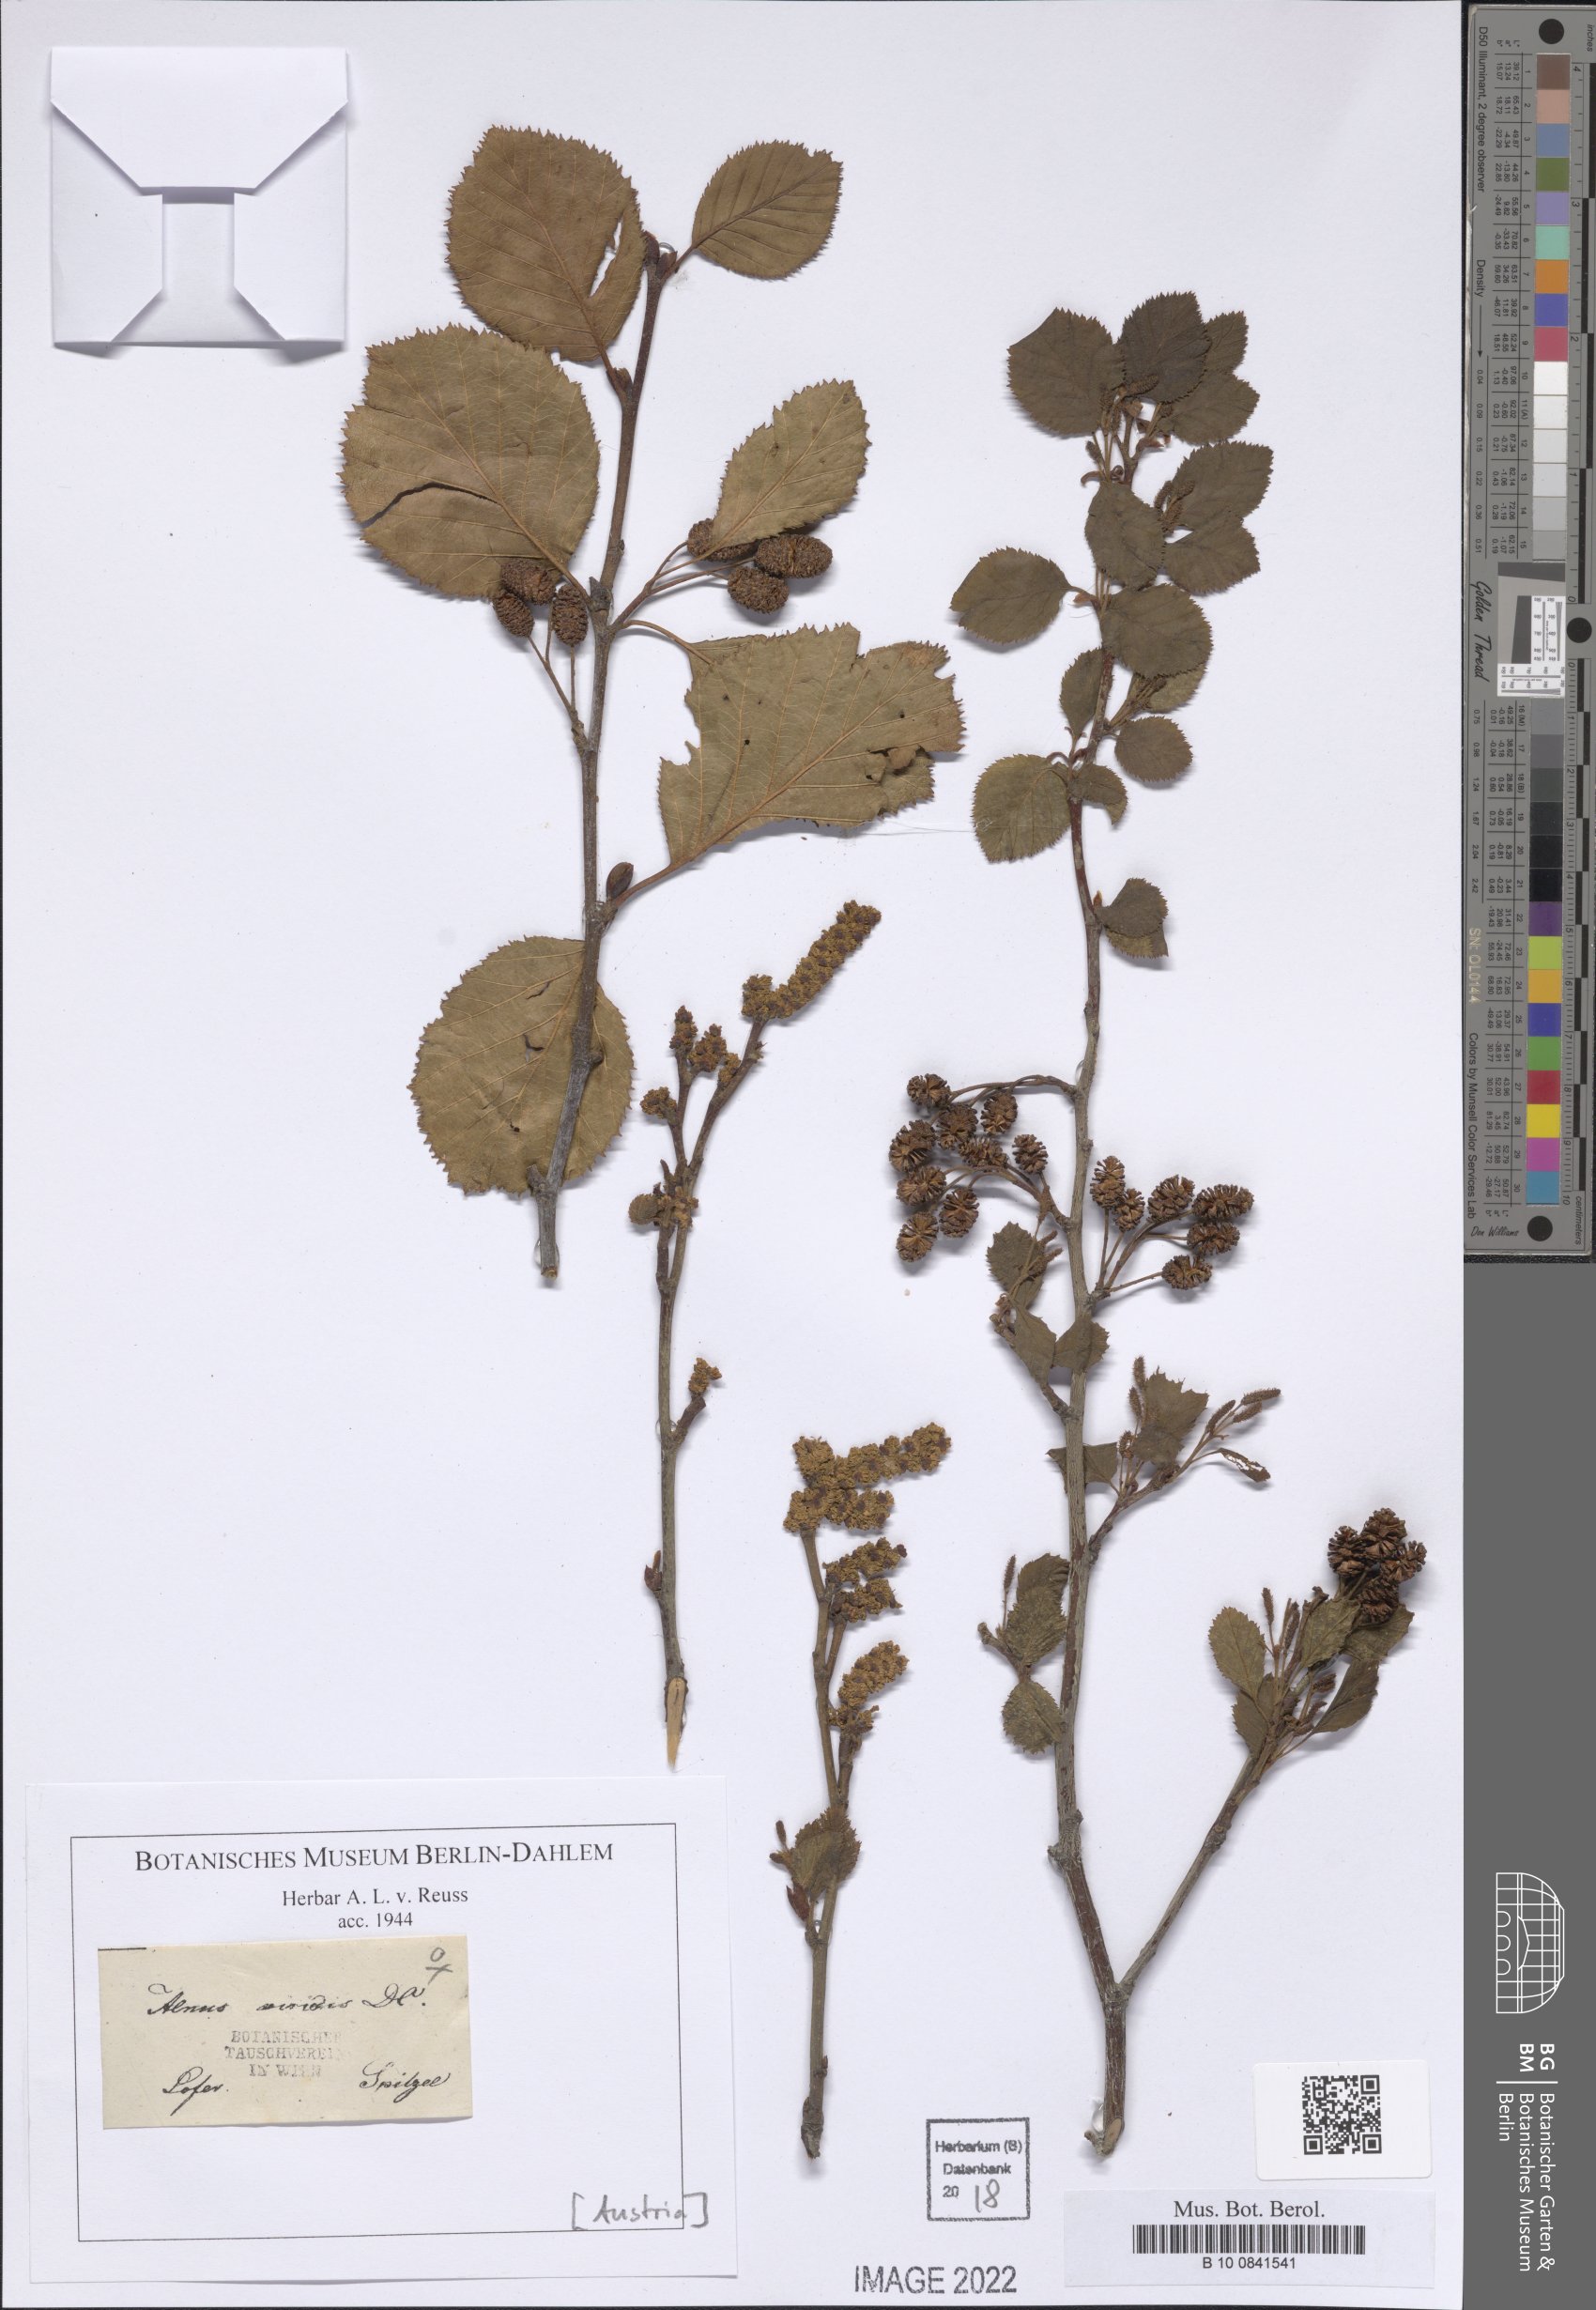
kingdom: Plantae
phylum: Tracheophyta
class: Magnoliopsida
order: Fagales
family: Betulaceae
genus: Alnus
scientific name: Alnus alnobetula
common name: Green alder
